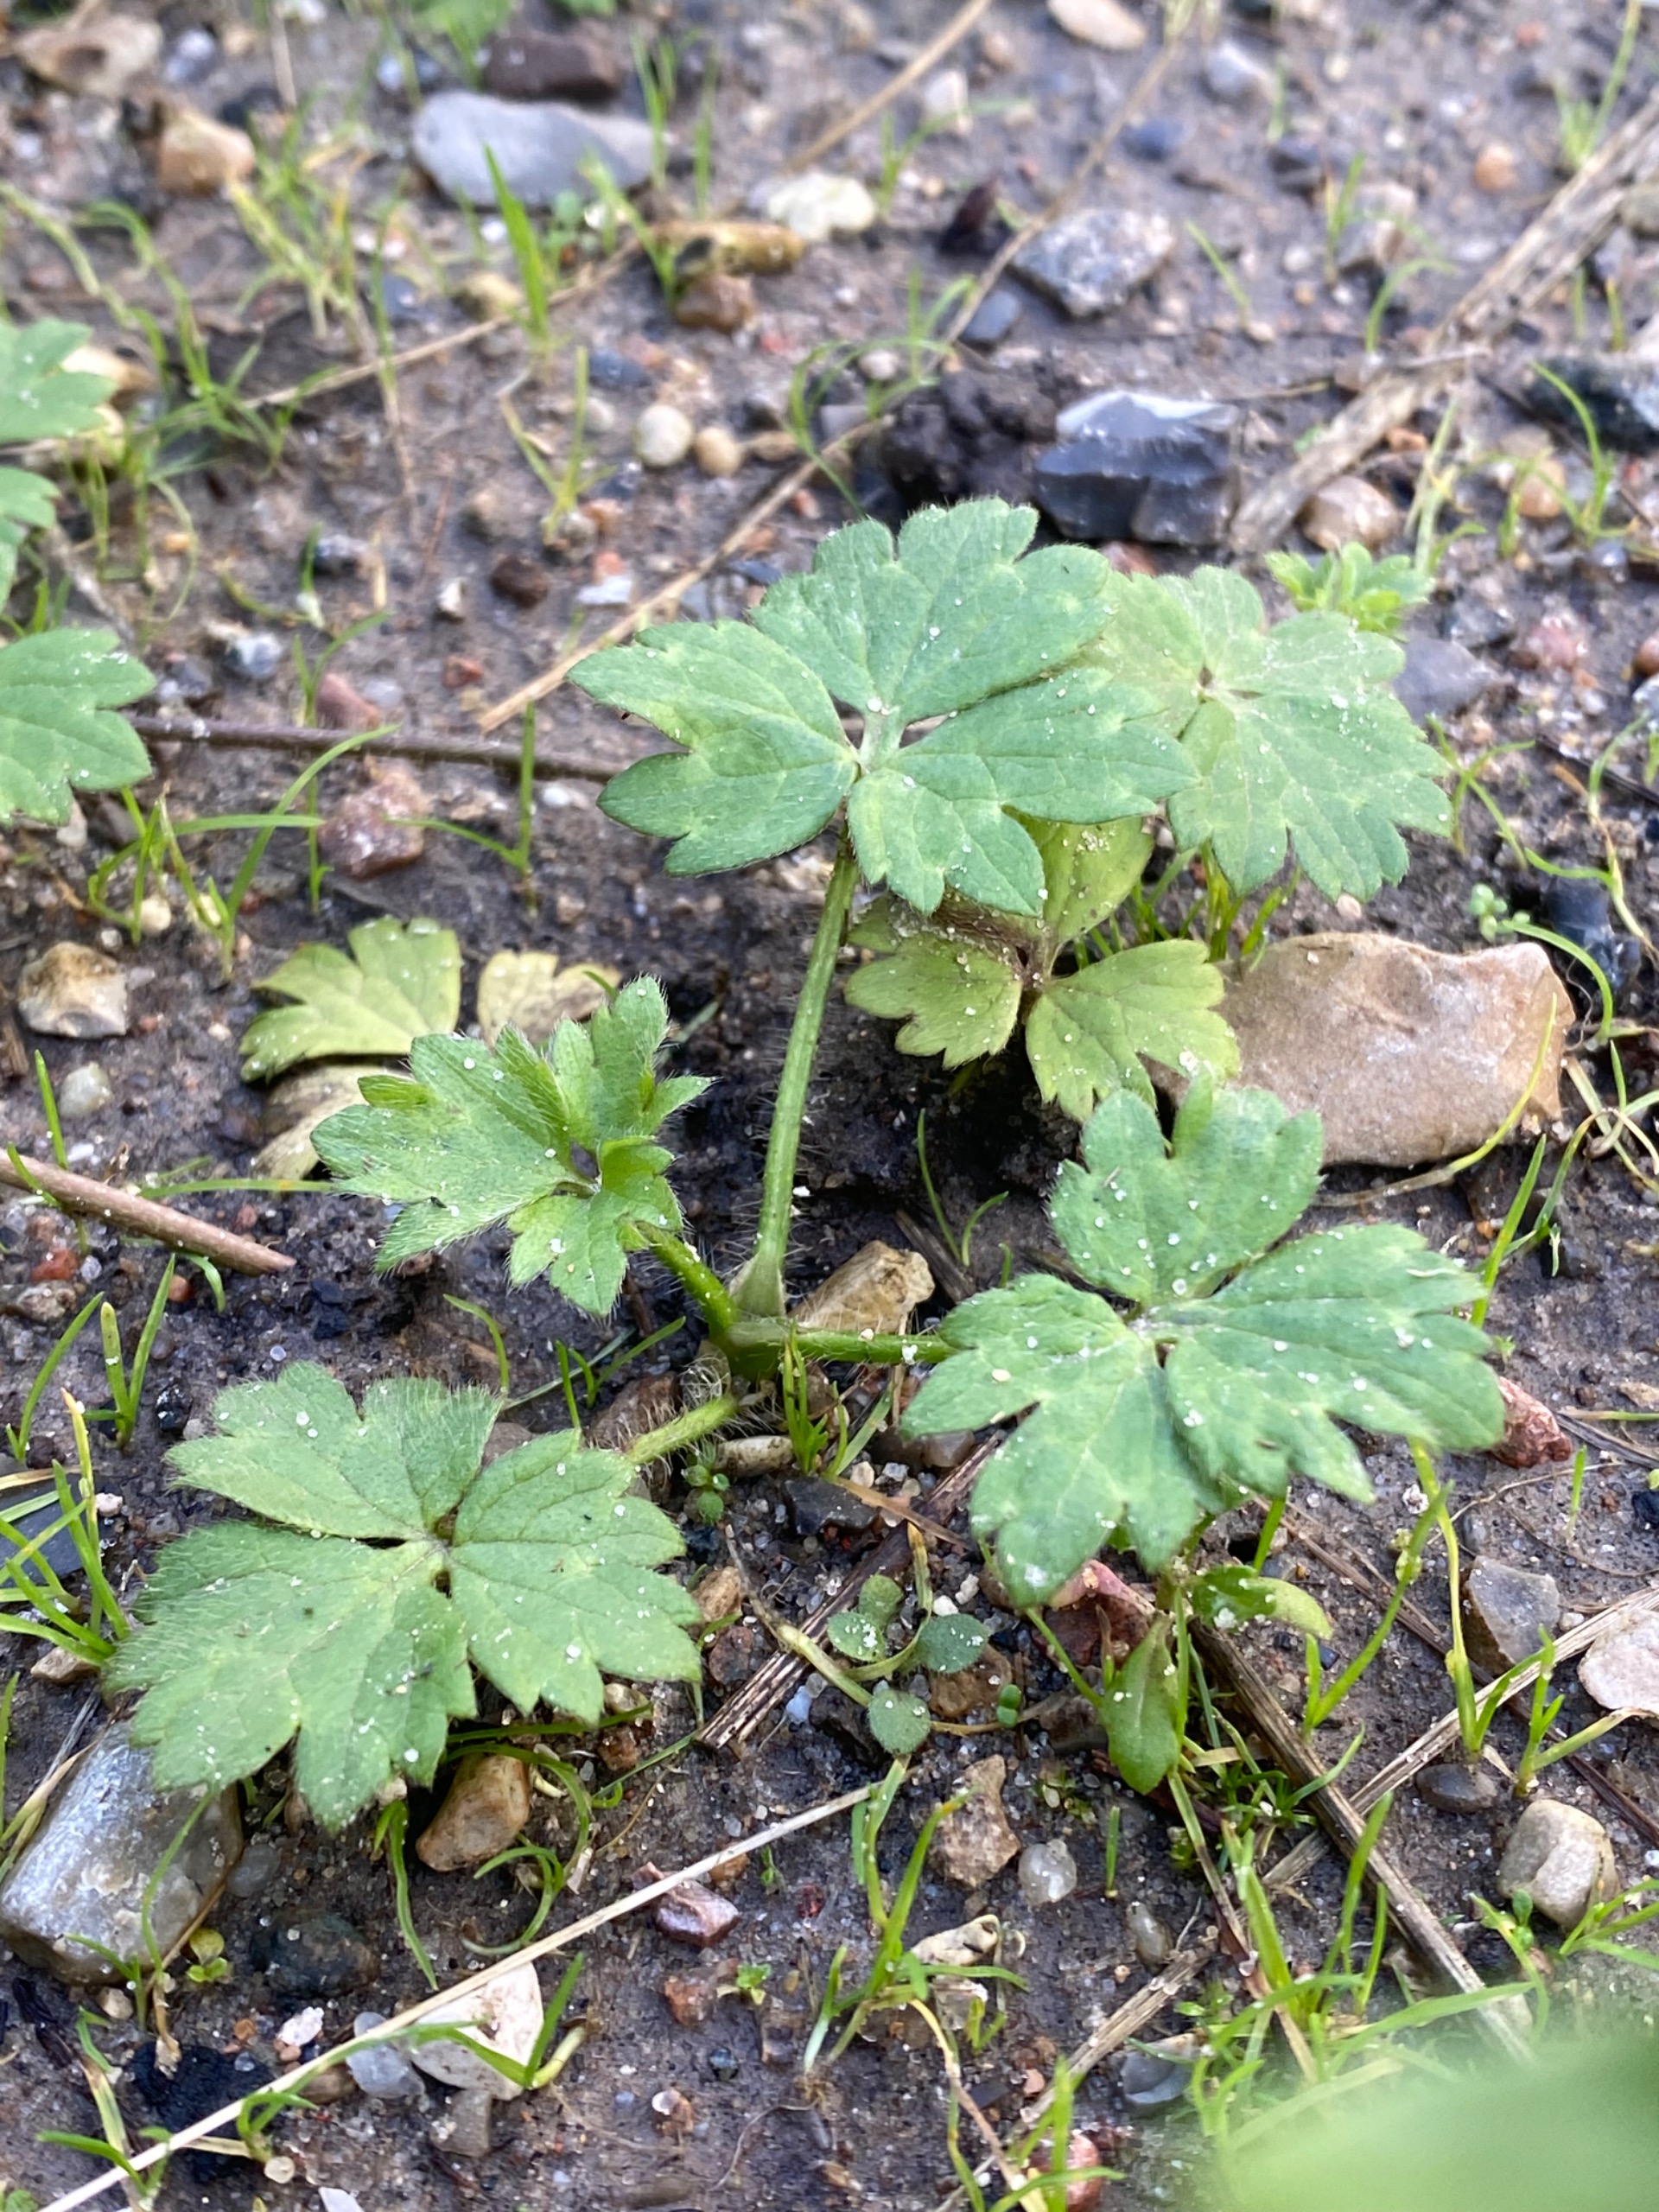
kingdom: Plantae
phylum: Tracheophyta
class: Magnoliopsida
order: Ranunculales
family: Ranunculaceae
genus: Ranunculus
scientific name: Ranunculus repens
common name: Lav ranunkel
